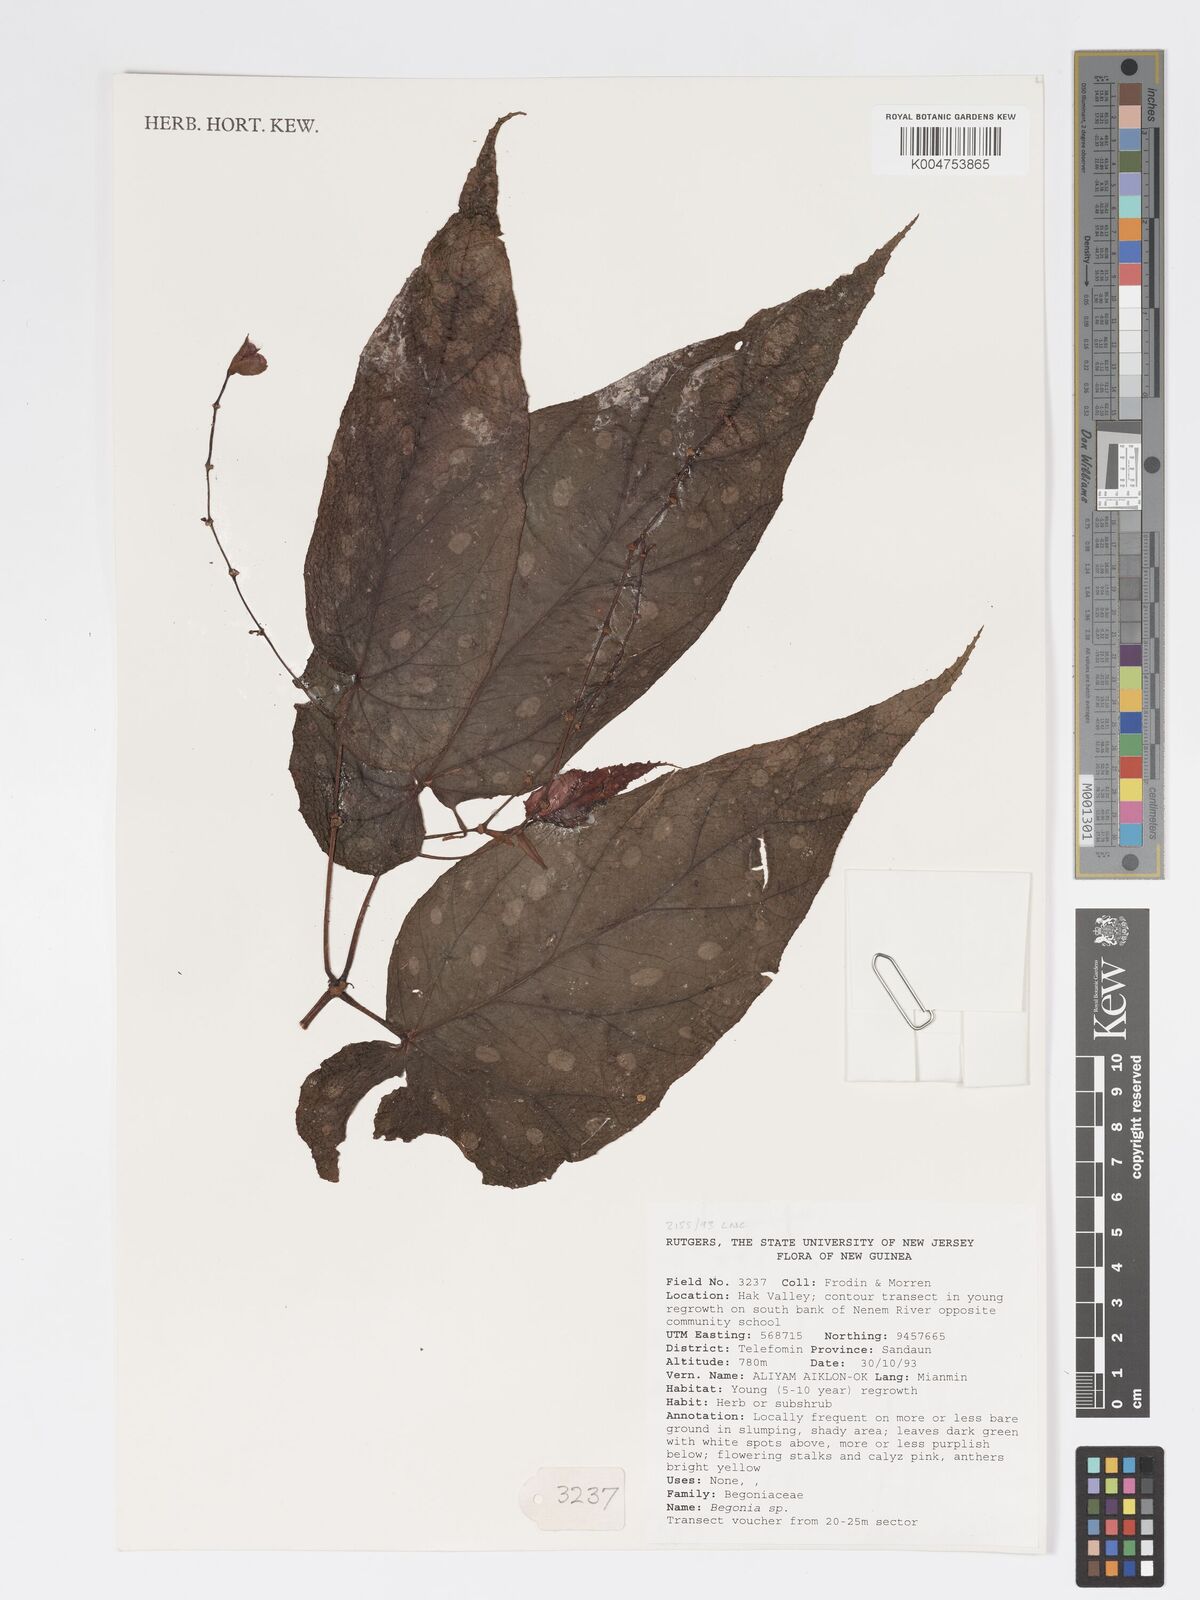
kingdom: Plantae
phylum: Tracheophyta
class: Magnoliopsida
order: Cucurbitales
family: Begoniaceae
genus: Begonia
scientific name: Begonia
